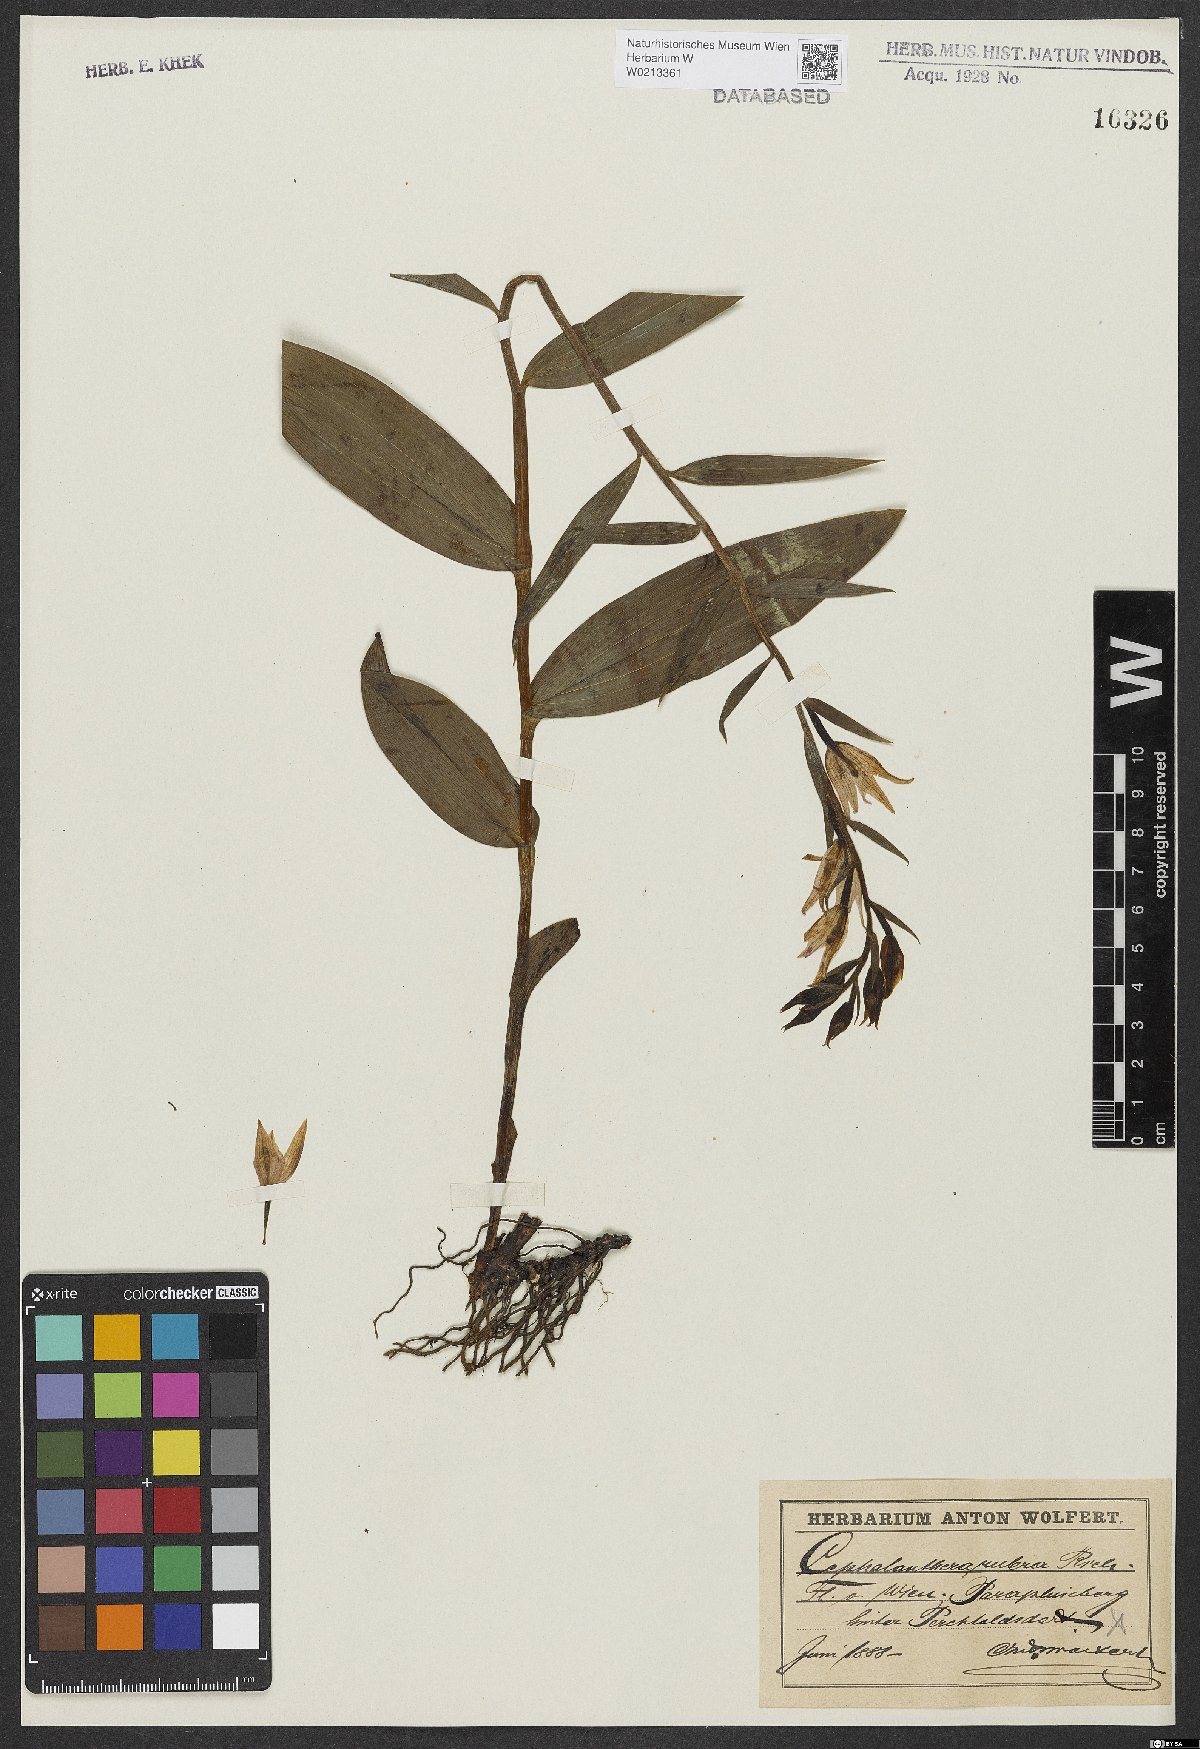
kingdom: Plantae
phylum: Tracheophyta
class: Liliopsida
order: Asparagales
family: Orchidaceae
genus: Cephalanthera
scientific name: Cephalanthera rubra
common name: Red helleborine
